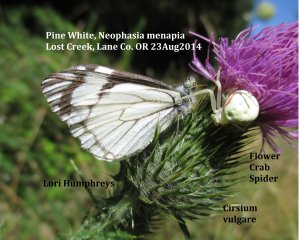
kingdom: Animalia
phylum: Arthropoda
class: Insecta
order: Lepidoptera
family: Pieridae
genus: Neophasia
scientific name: Neophasia menapia
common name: Pine White
